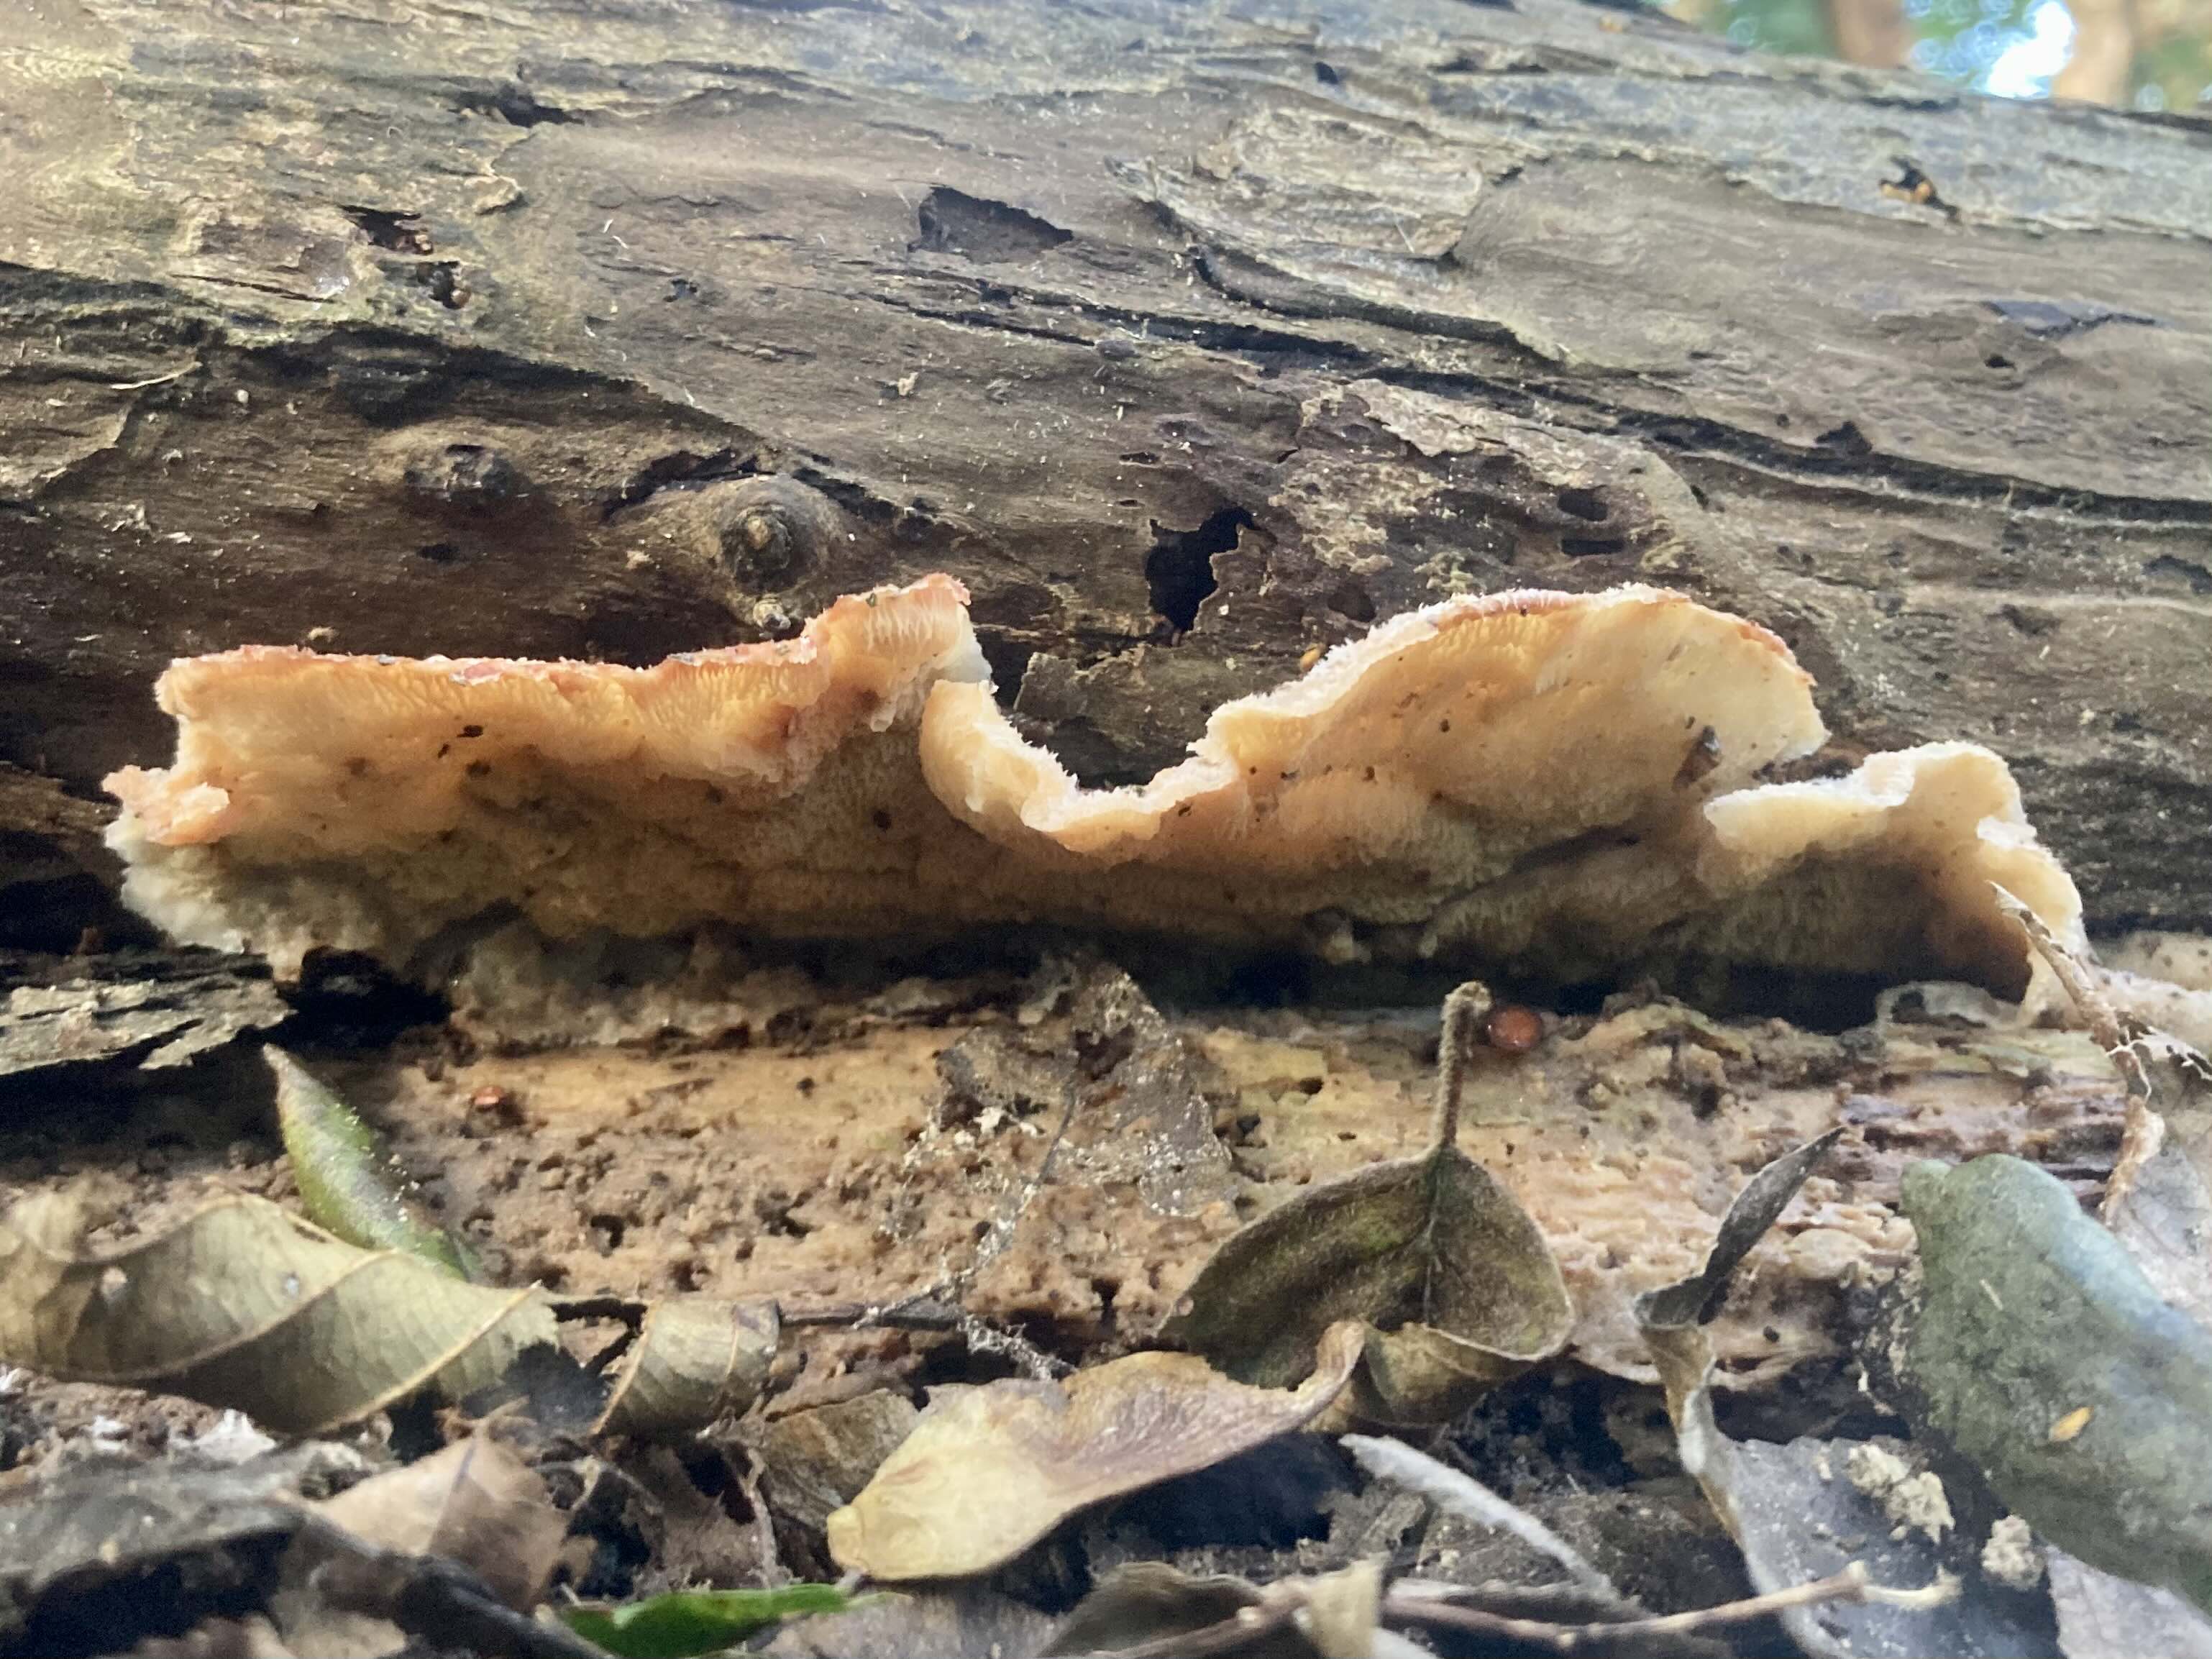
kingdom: Fungi
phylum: Basidiomycota
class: Agaricomycetes
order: Polyporales
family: Meruliaceae
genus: Phlebia
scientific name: Phlebia tremellosa
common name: bævrende åresvamp
